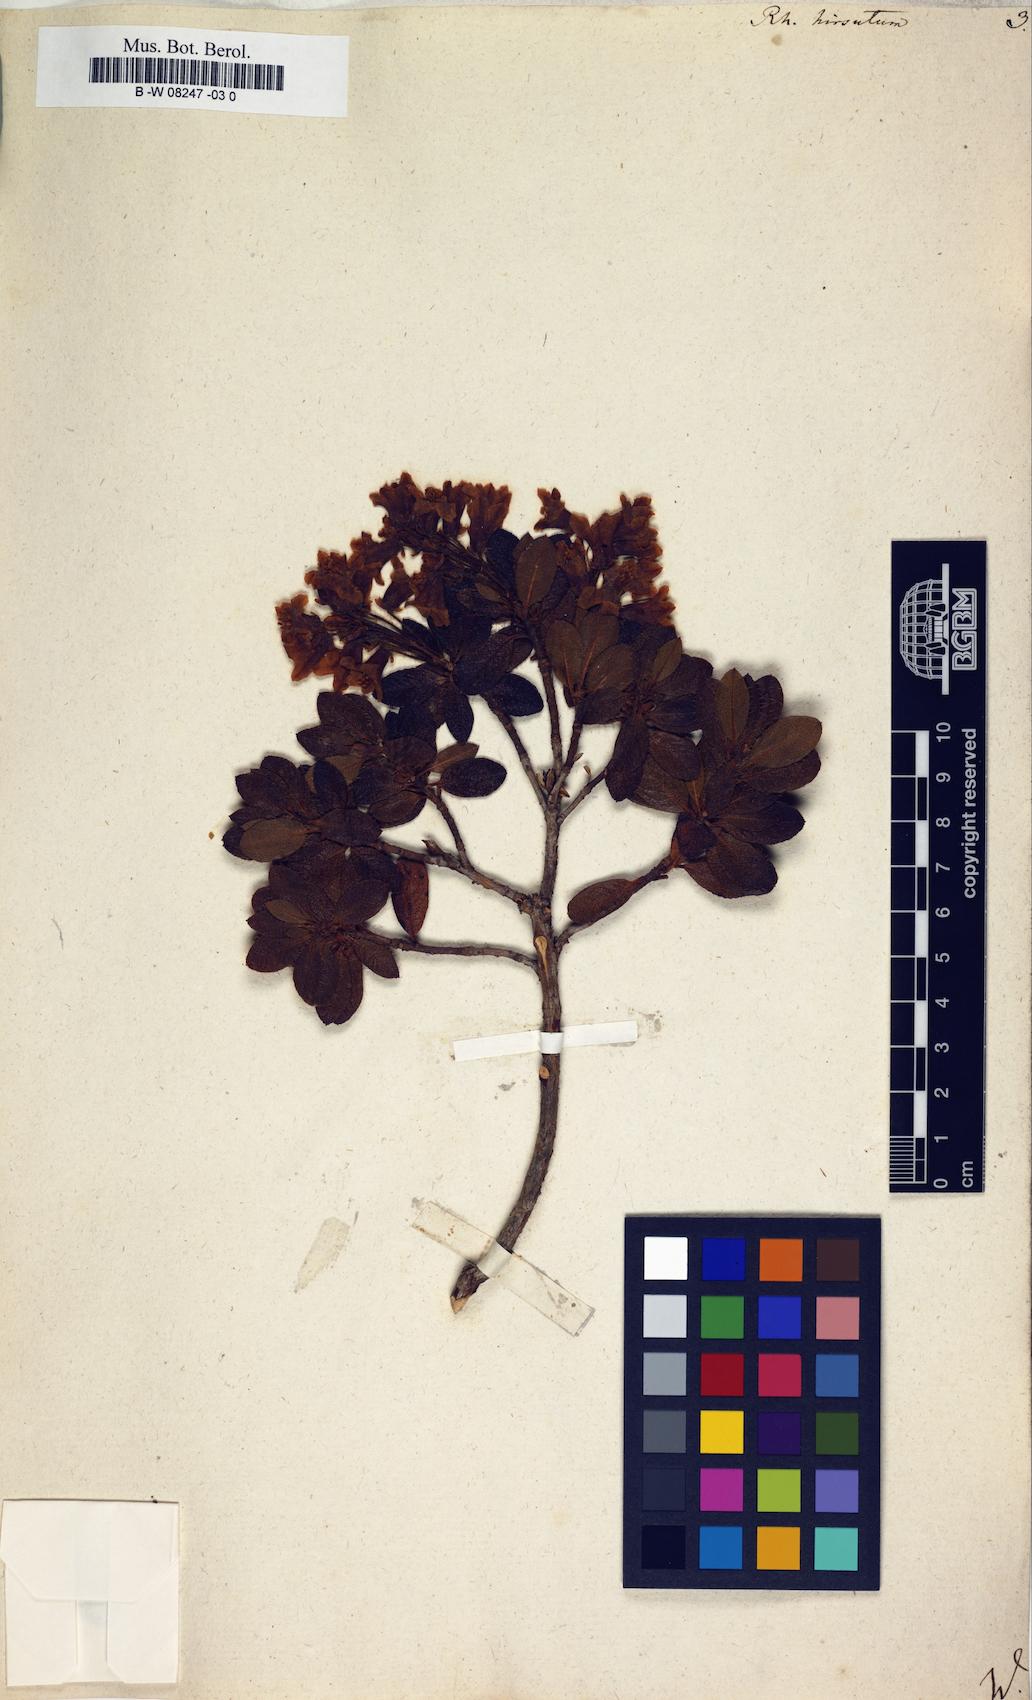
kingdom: Plantae
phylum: Tracheophyta
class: Magnoliopsida
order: Ericales
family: Ericaceae
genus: Rhododendron
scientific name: Rhododendron hirsutum
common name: Hairy alpenrose
